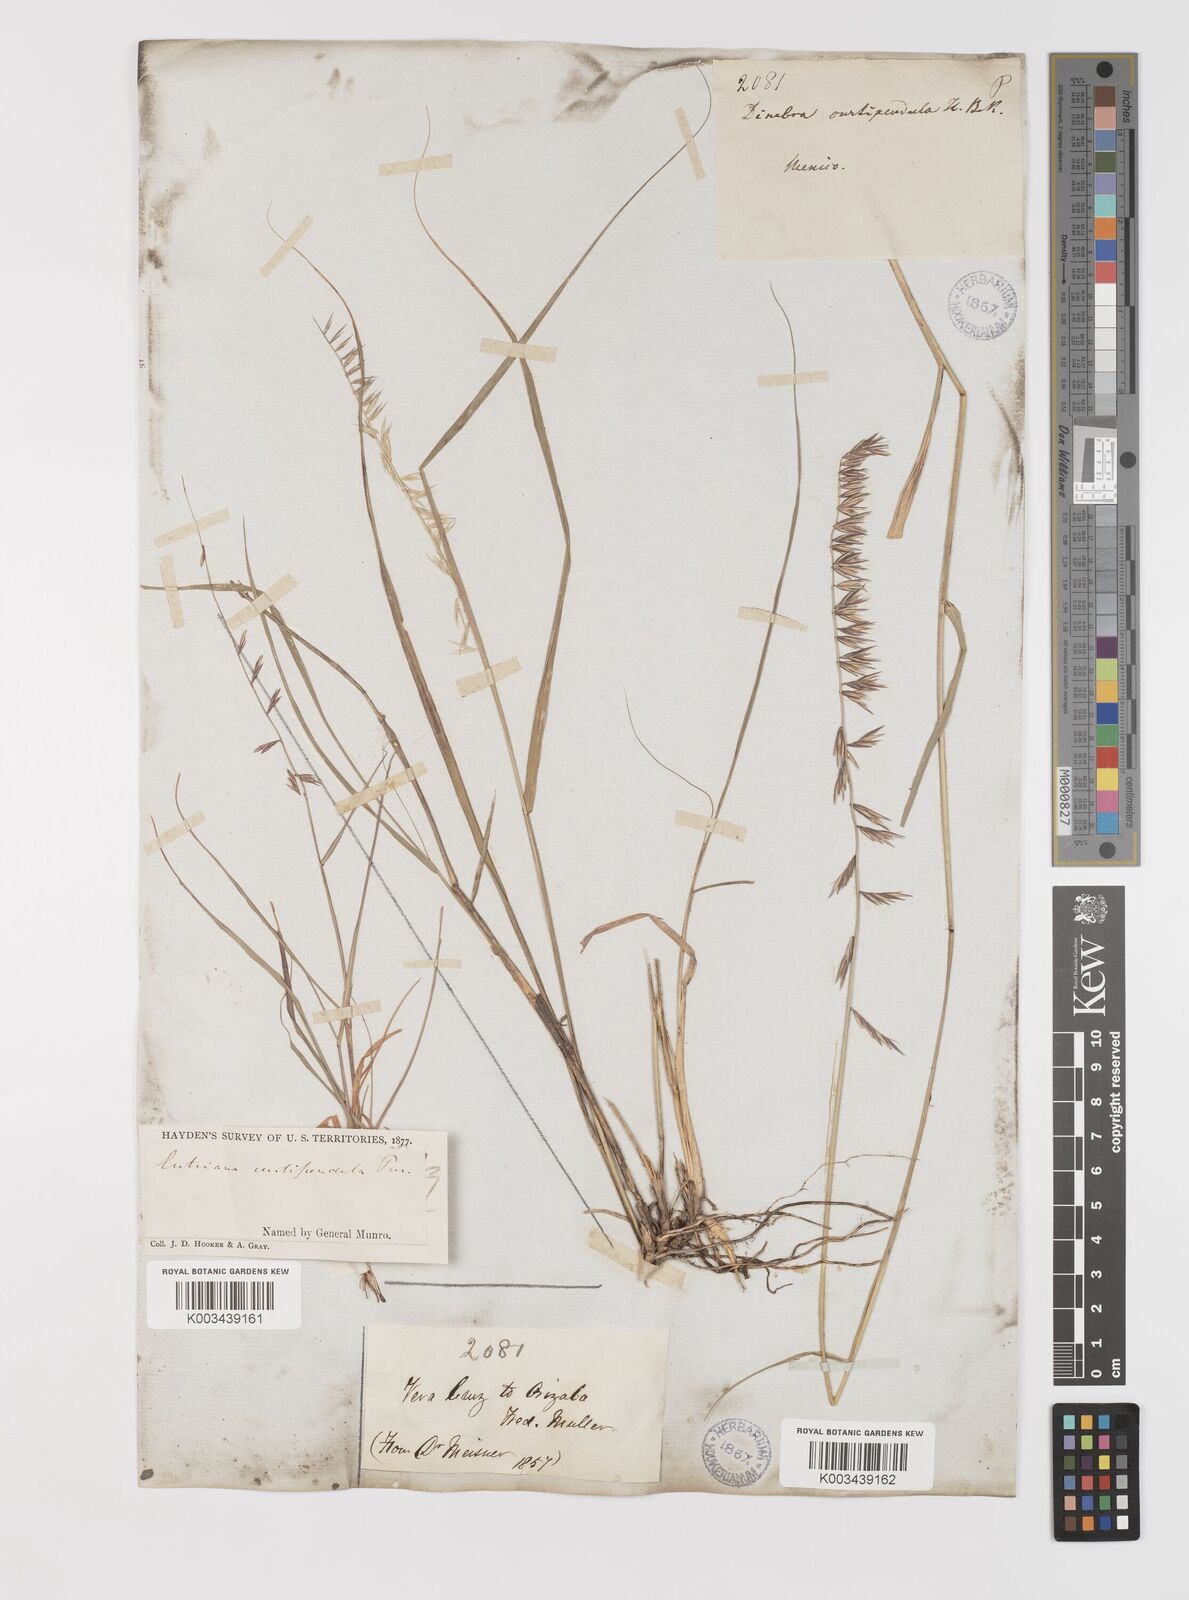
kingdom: Plantae
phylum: Tracheophyta
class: Liliopsida
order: Poales
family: Poaceae
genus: Bouteloua
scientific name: Bouteloua curtipendula
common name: Side-oats grama
